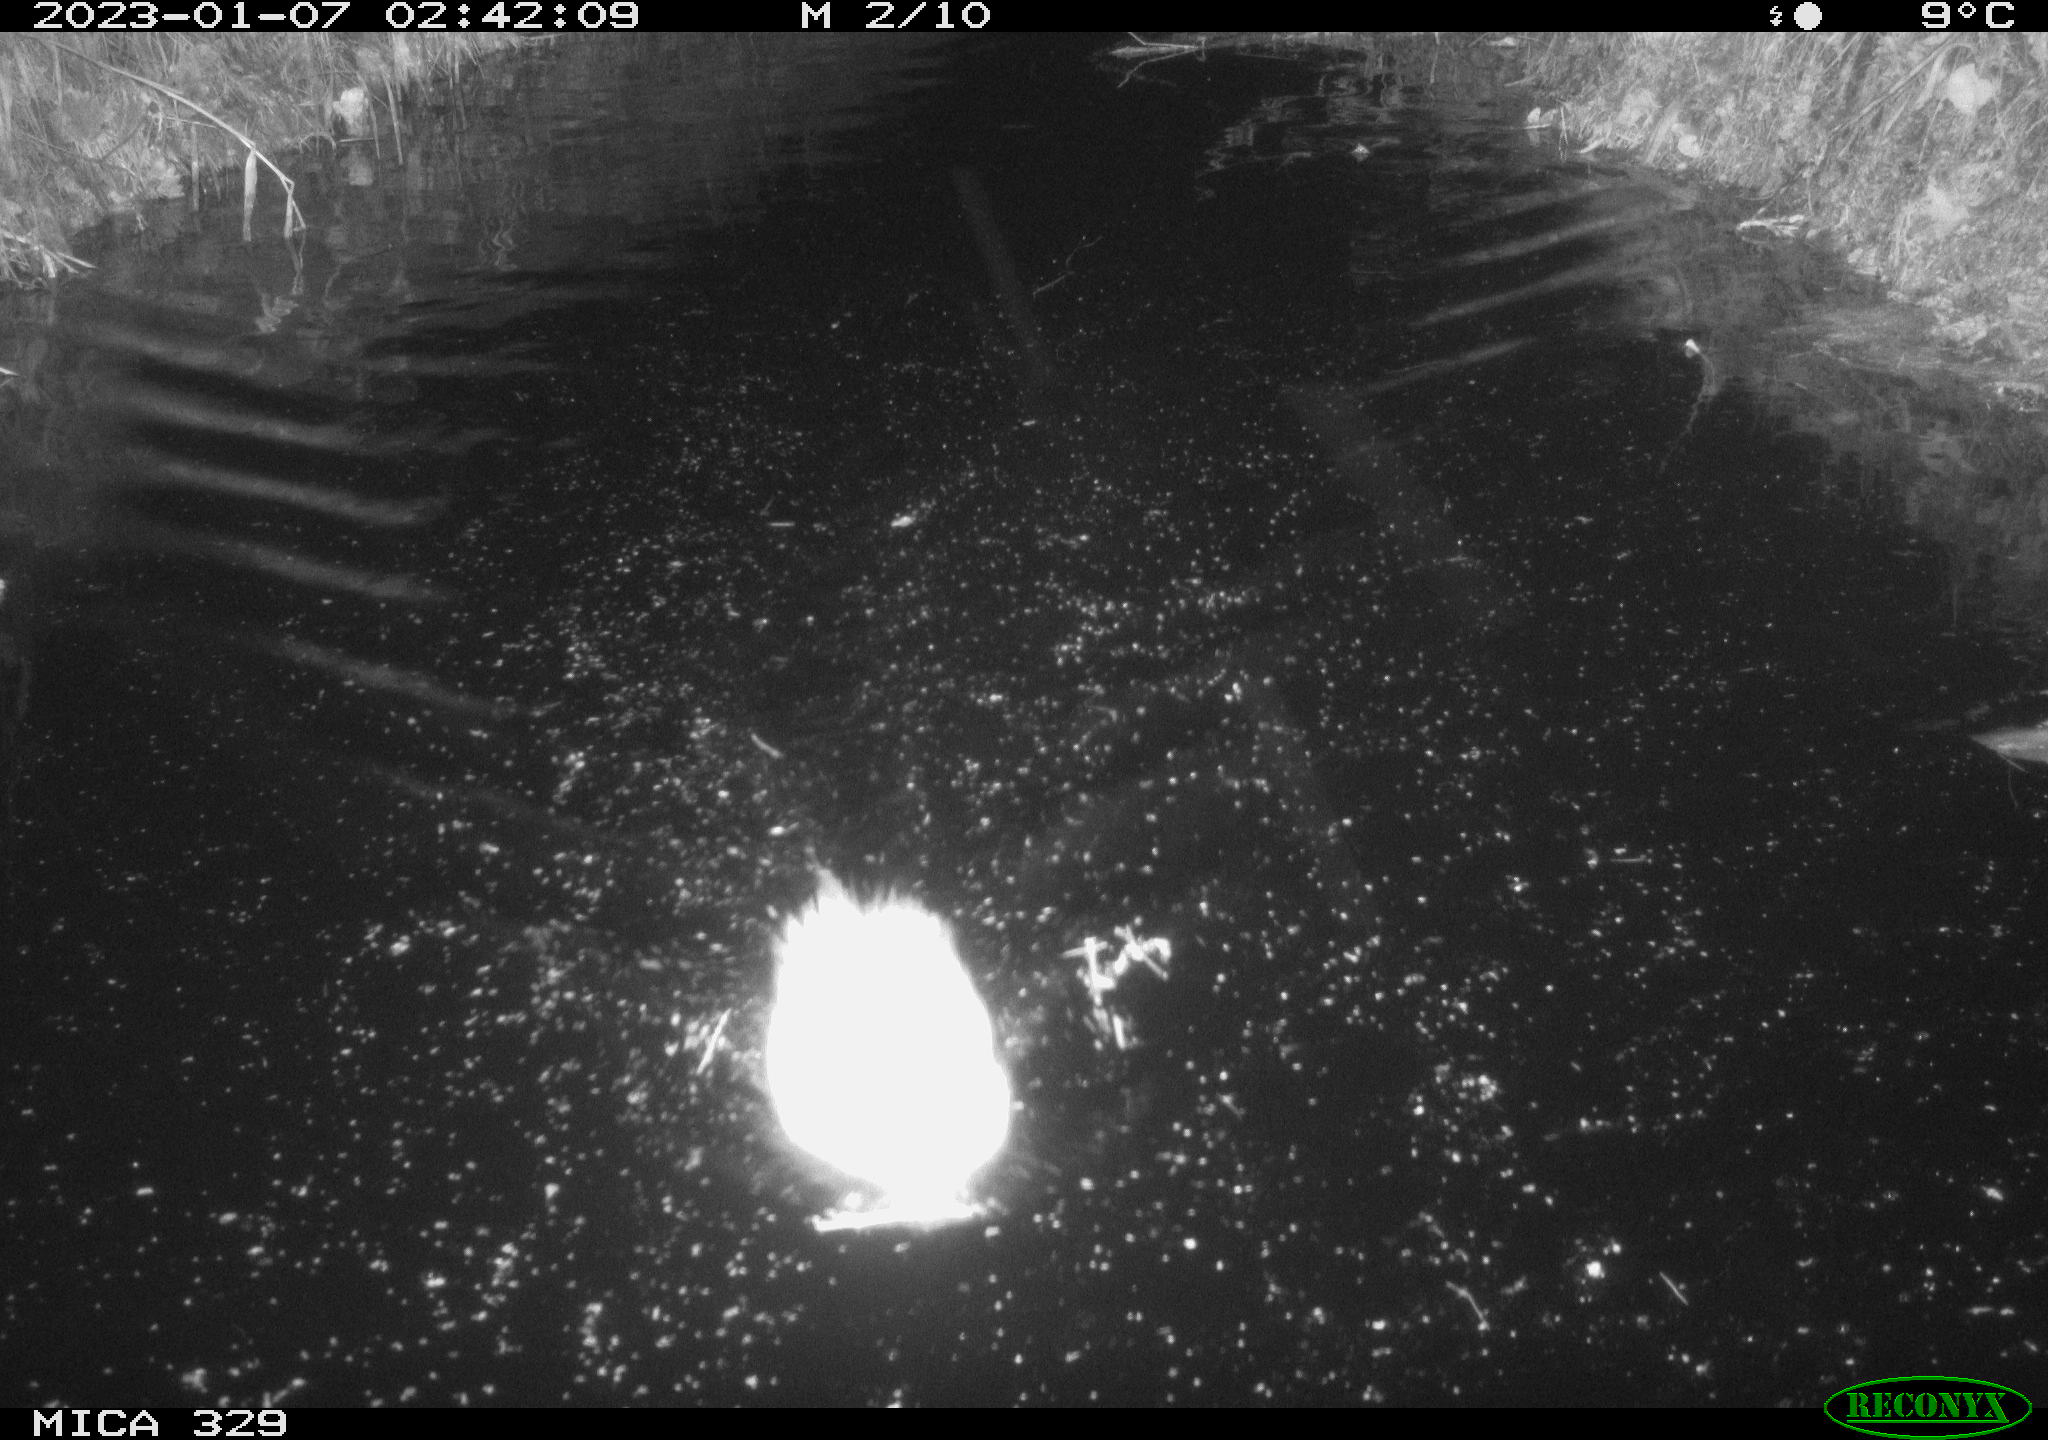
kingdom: Animalia
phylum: Chordata
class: Mammalia
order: Rodentia
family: Cricetidae
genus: Ondatra
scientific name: Ondatra zibethicus
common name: Muskrat
